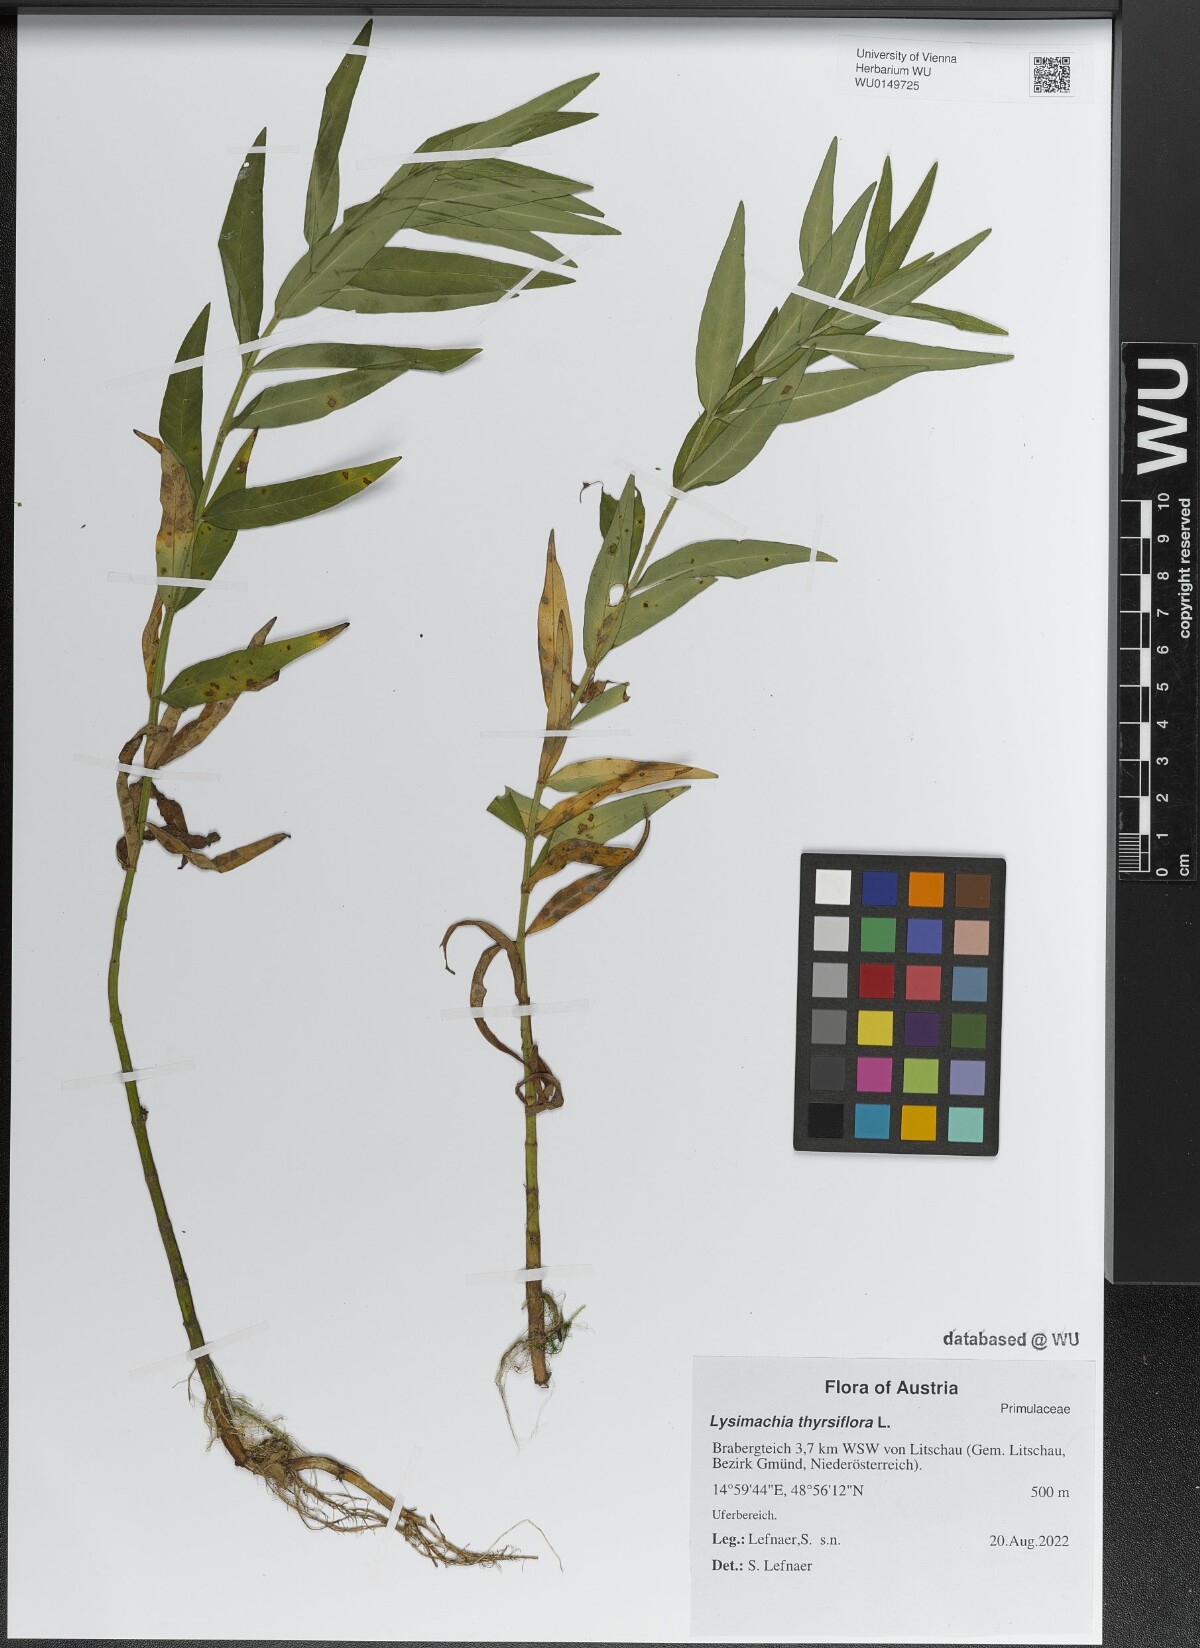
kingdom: Plantae
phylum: Tracheophyta
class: Magnoliopsida
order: Ericales
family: Primulaceae
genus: Lysimachia
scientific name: Lysimachia thyrsiflora
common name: Tufted loosestrife
